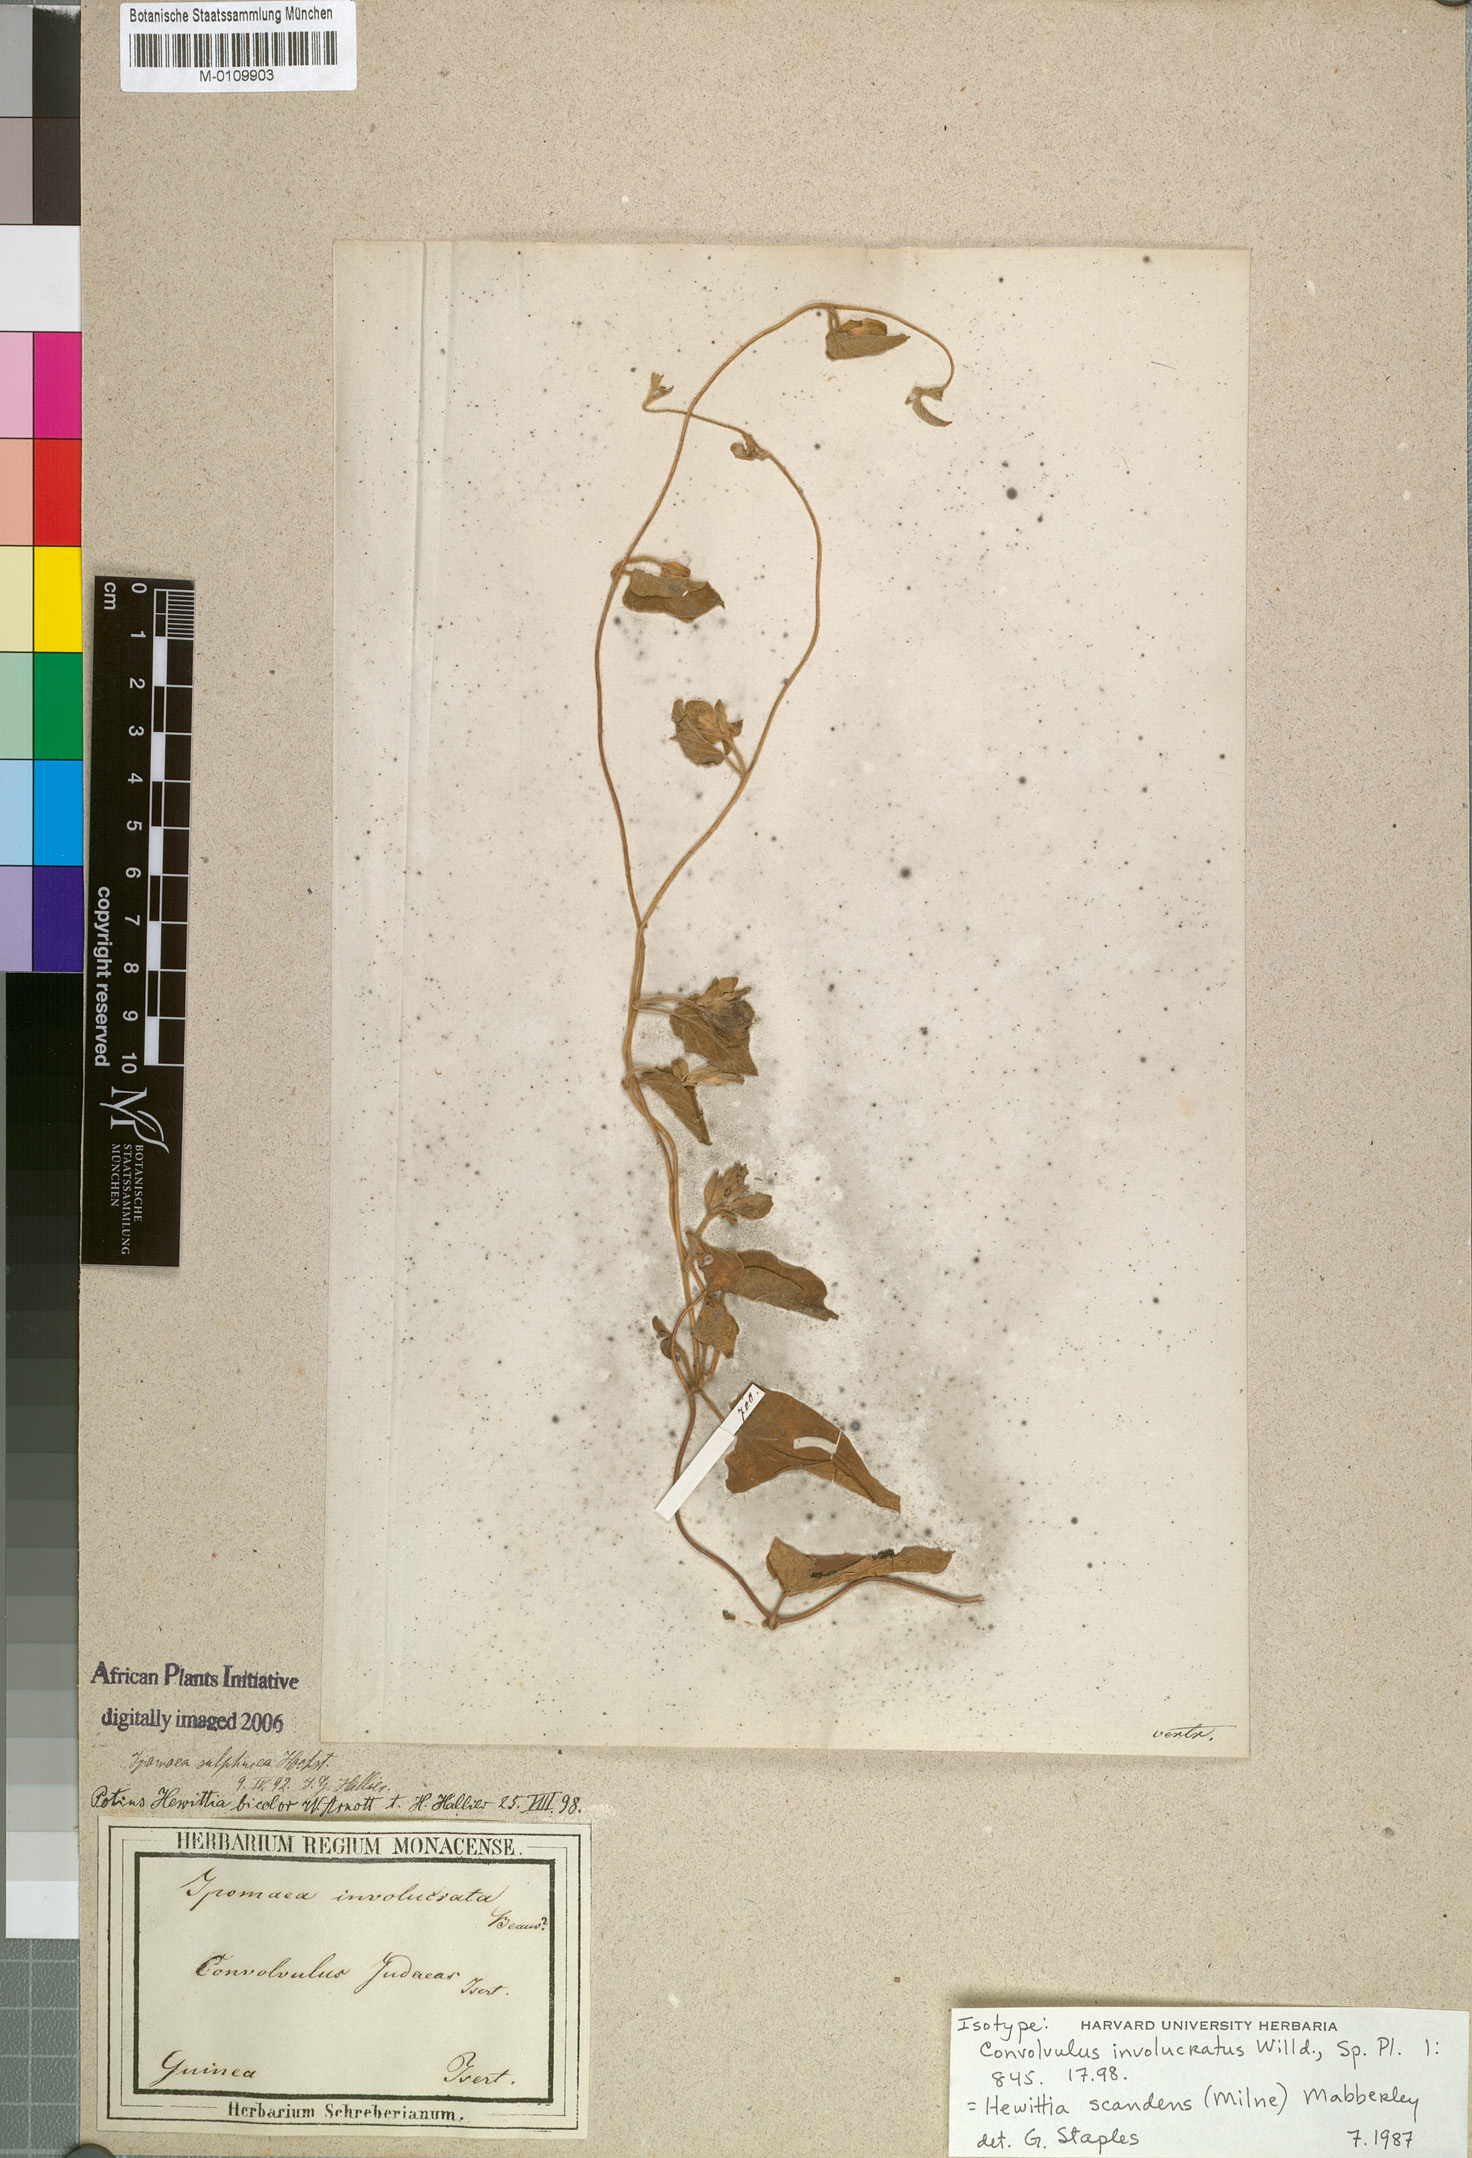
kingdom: Plantae
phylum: Tracheophyta
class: Magnoliopsida
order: Solanales
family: Convolvulaceae
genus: Hewittia
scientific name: Hewittia malabarica
